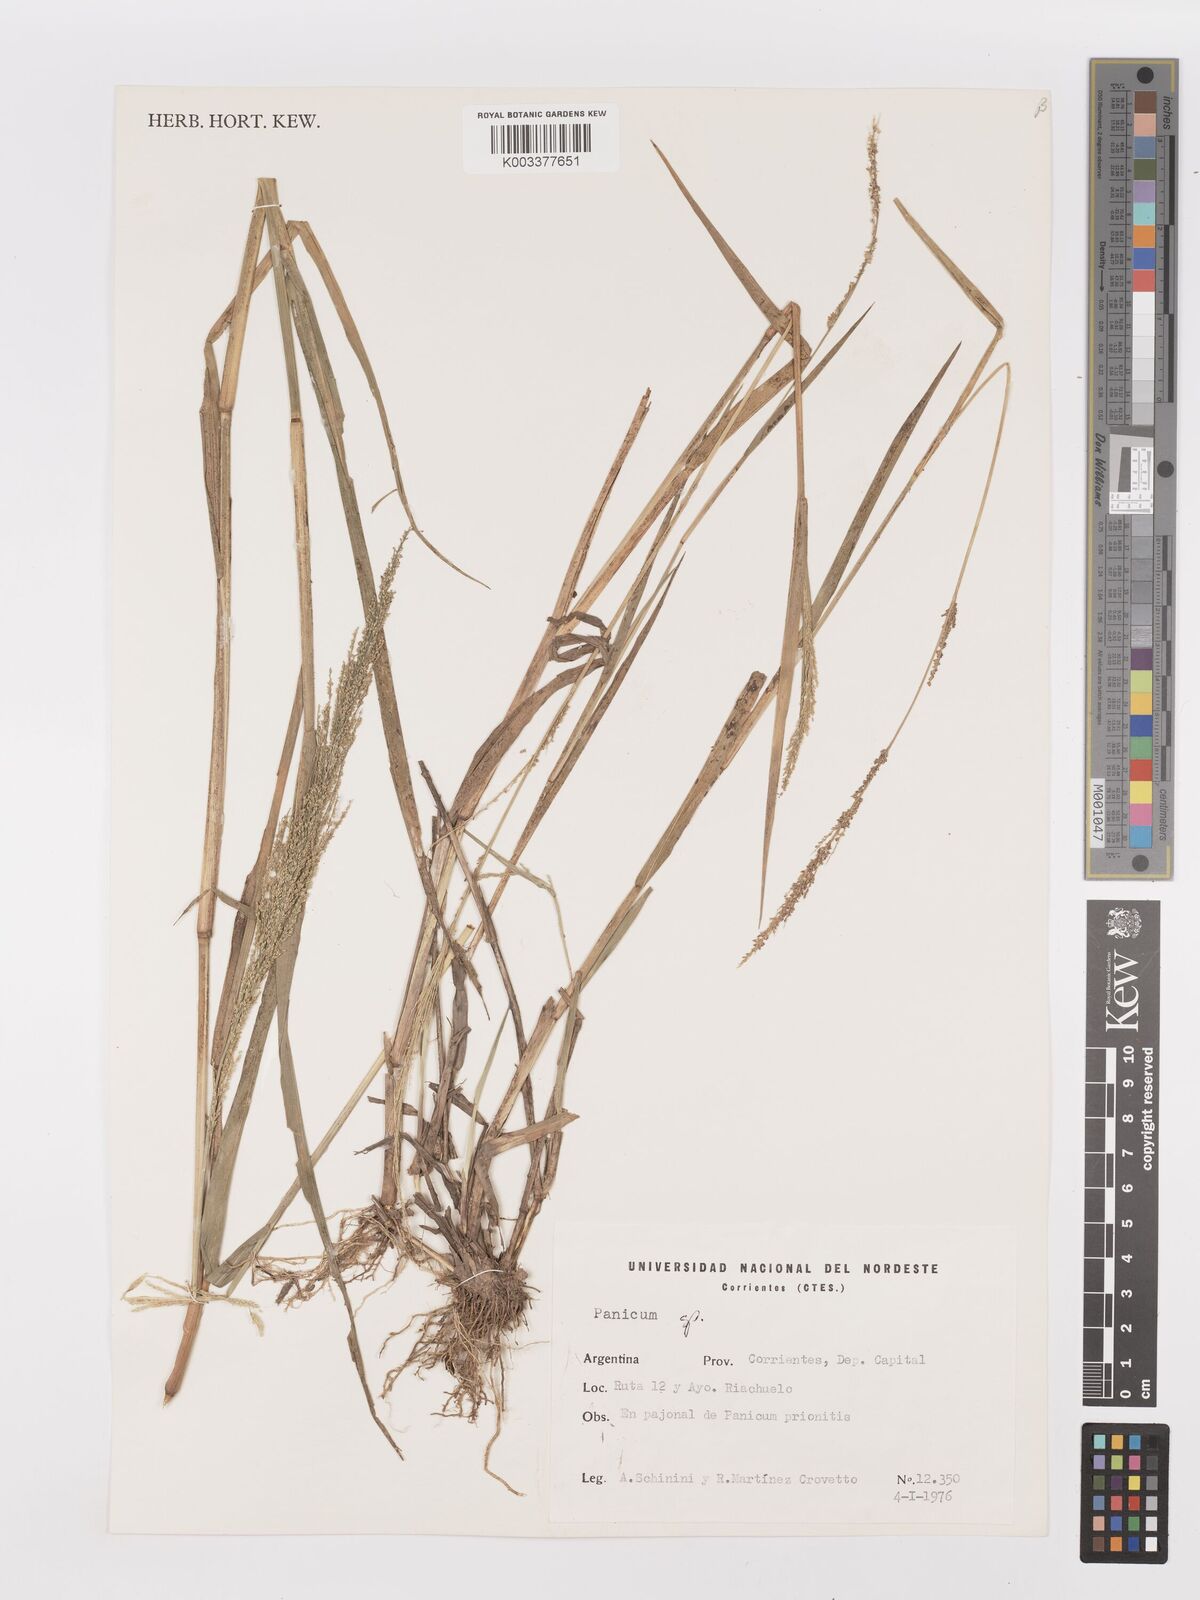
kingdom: Plantae
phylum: Tracheophyta
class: Liliopsida
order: Poales
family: Poaceae
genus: Steinchisma
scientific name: Steinchisma laxum
